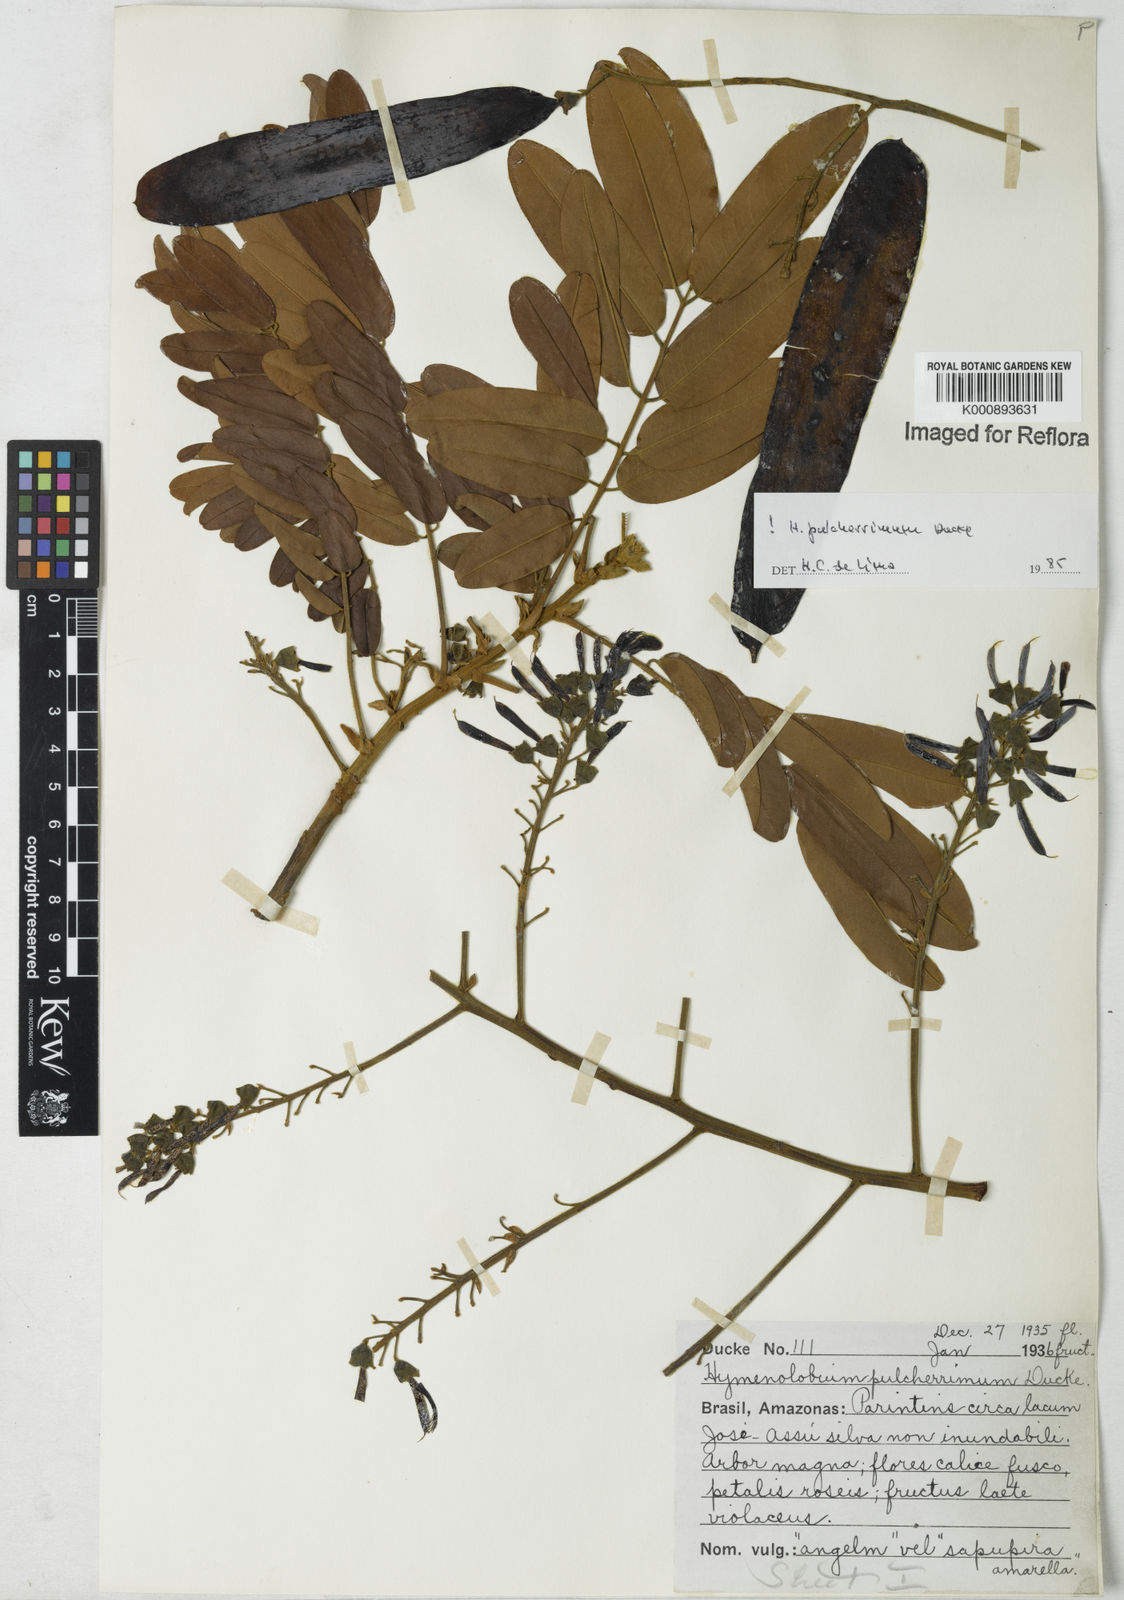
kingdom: Plantae
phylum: Tracheophyta
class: Magnoliopsida
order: Fabales
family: Fabaceae
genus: Hymenolobium
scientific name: Hymenolobium pulcherrimum
